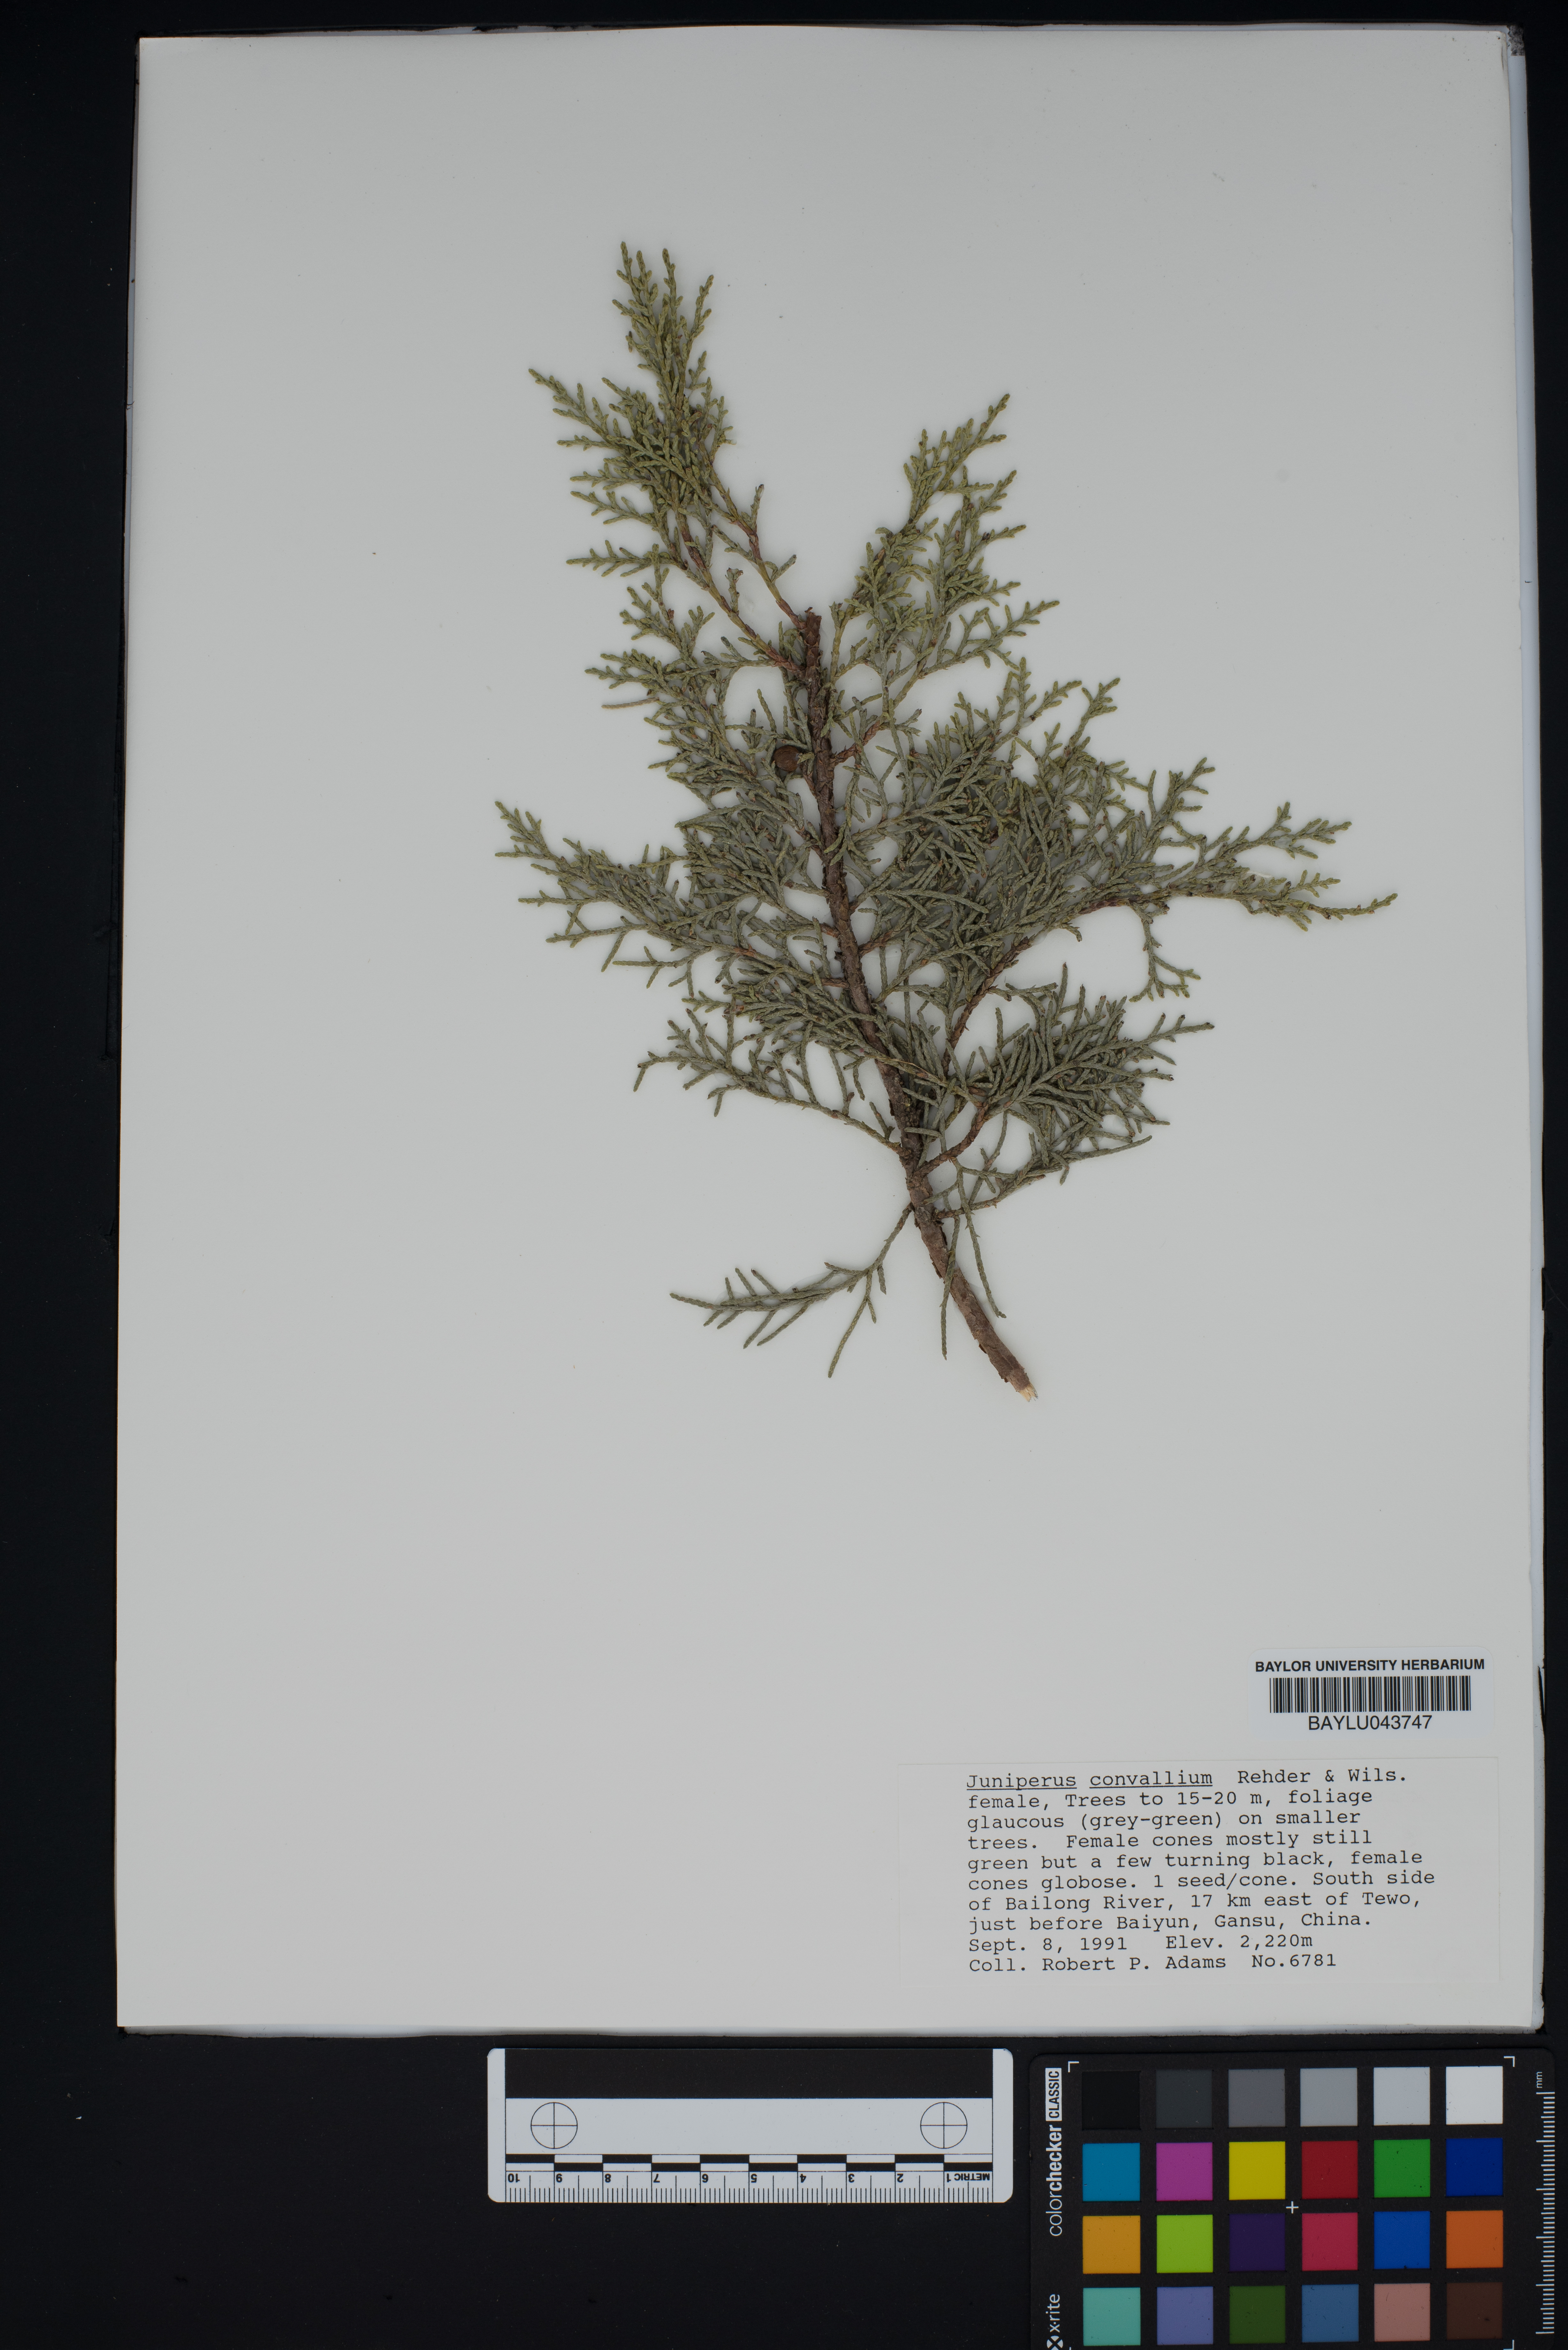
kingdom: Plantae
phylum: Tracheophyta
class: Pinopsida
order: Pinales
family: Cupressaceae
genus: Juniperus
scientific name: Juniperus convallium
